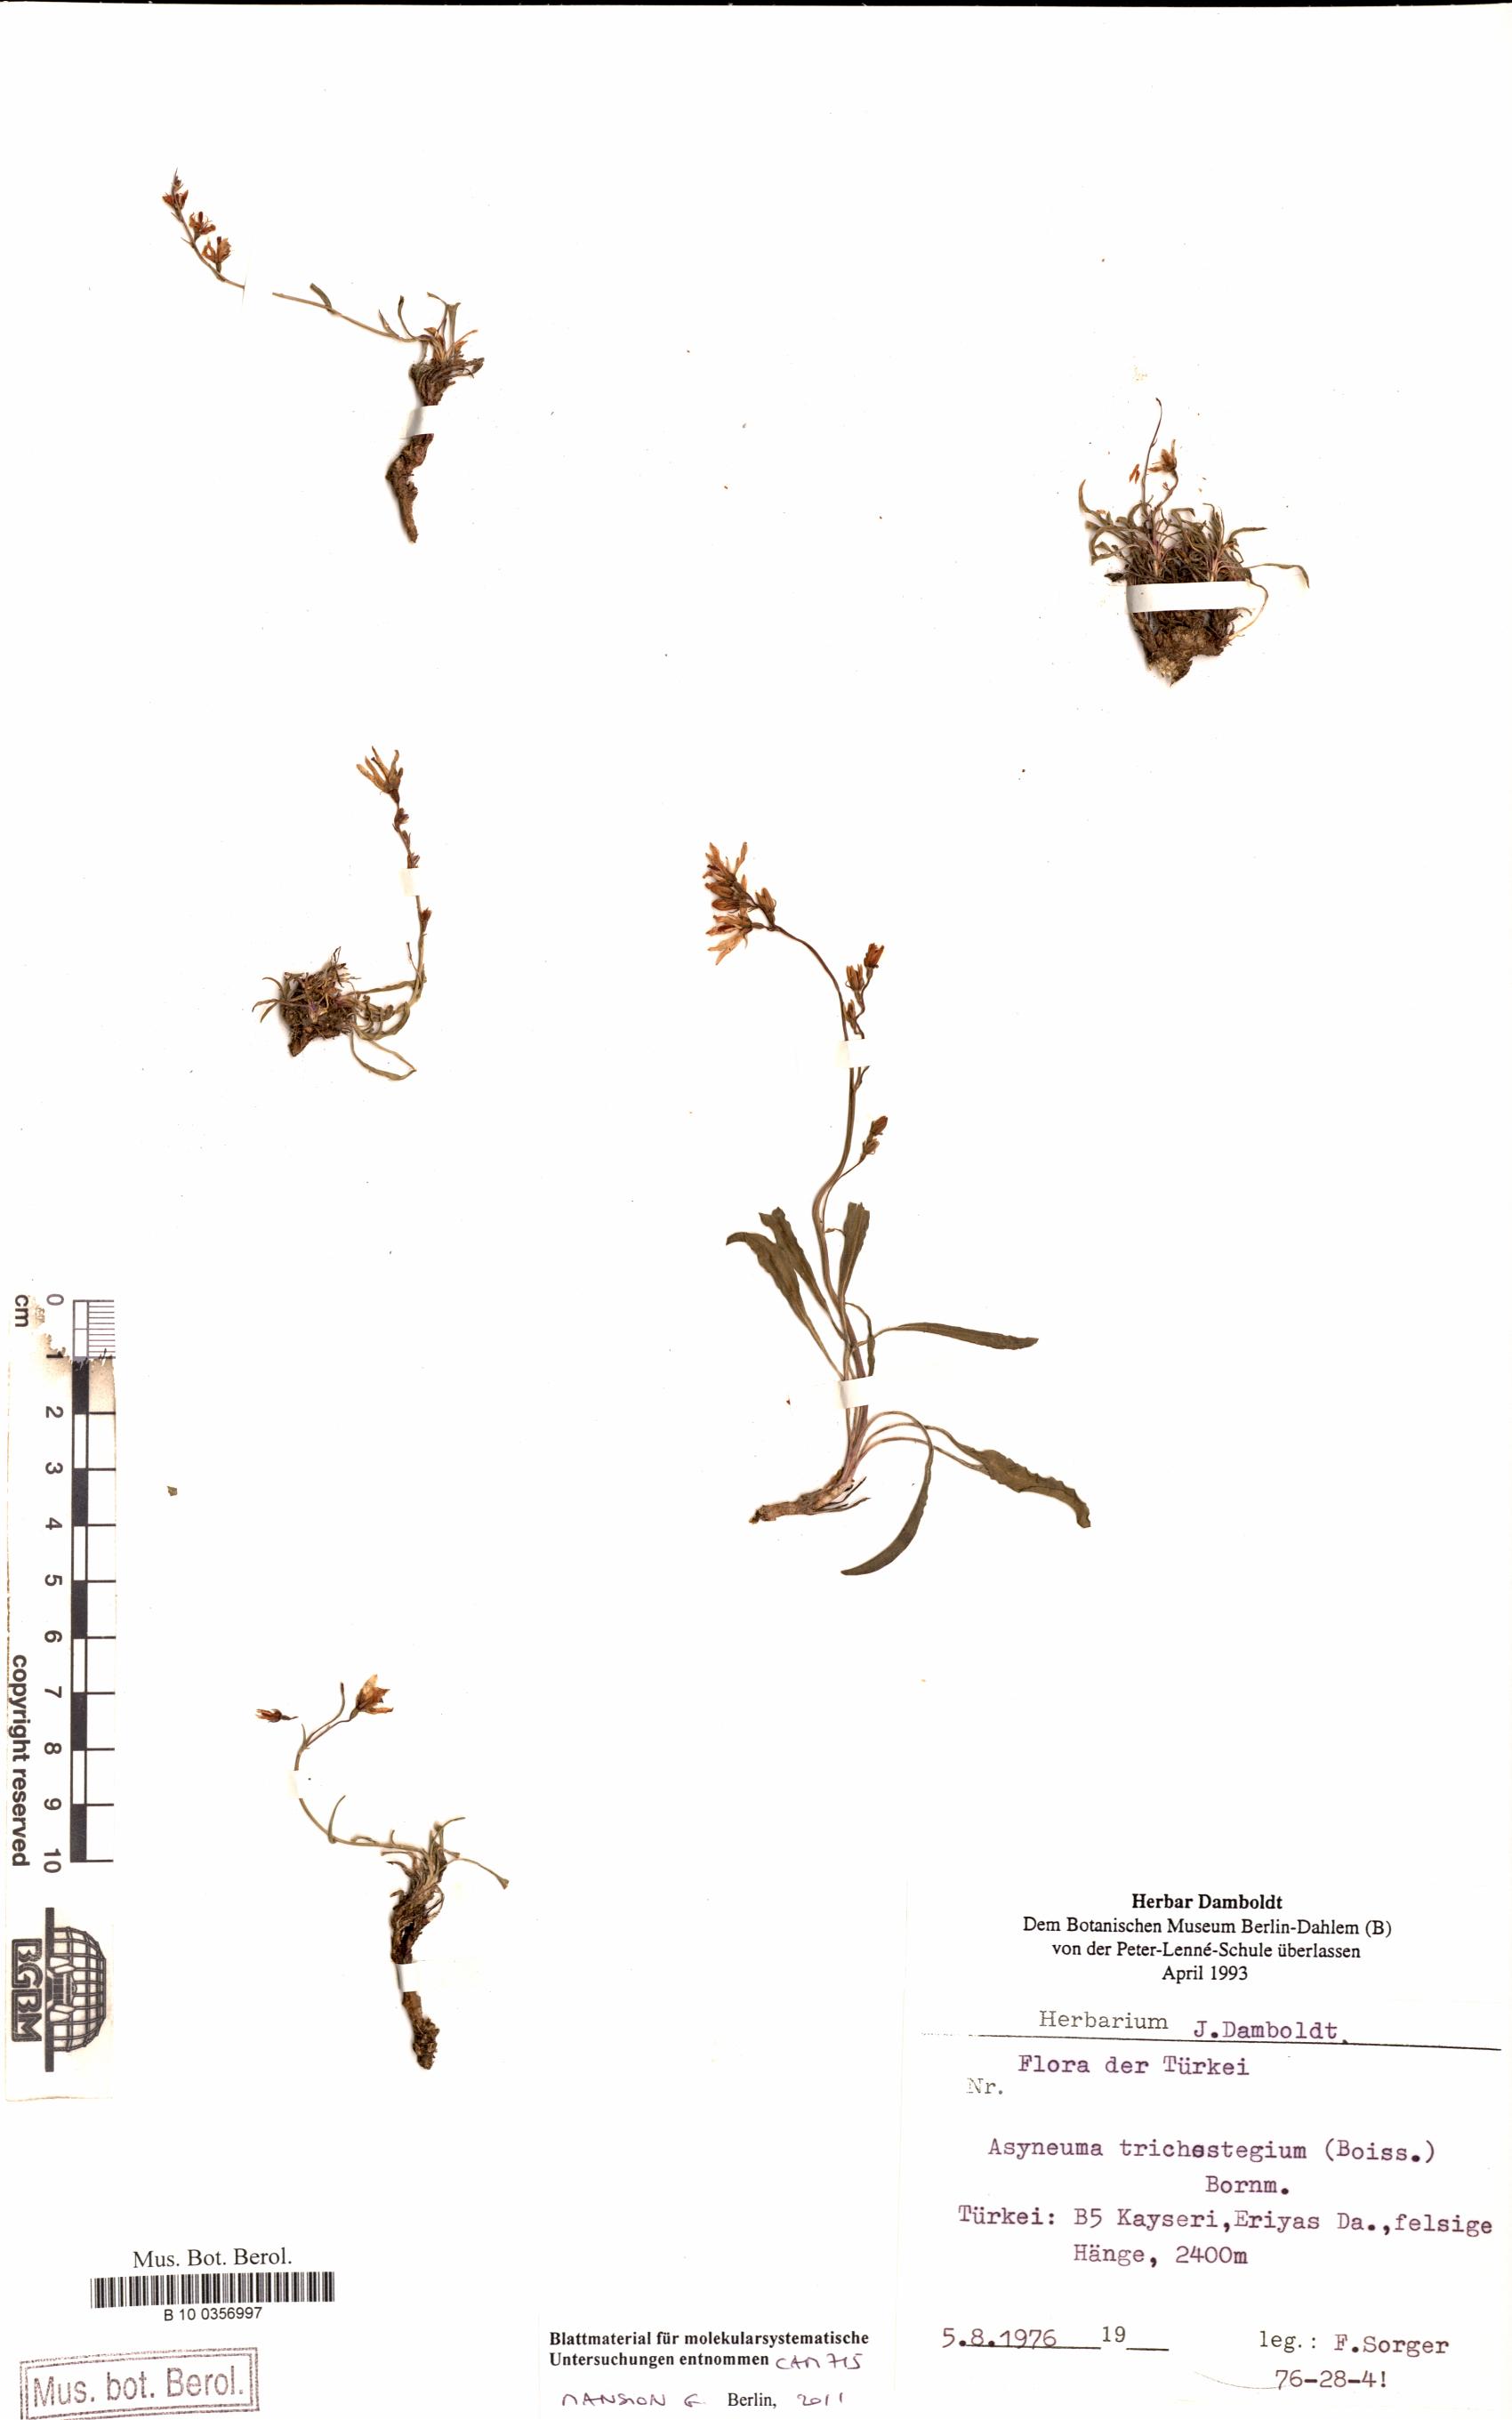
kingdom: Plantae
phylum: Tracheophyta
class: Magnoliopsida
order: Asterales
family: Campanulaceae
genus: Asyneuma
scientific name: Asyneuma trichostegium
